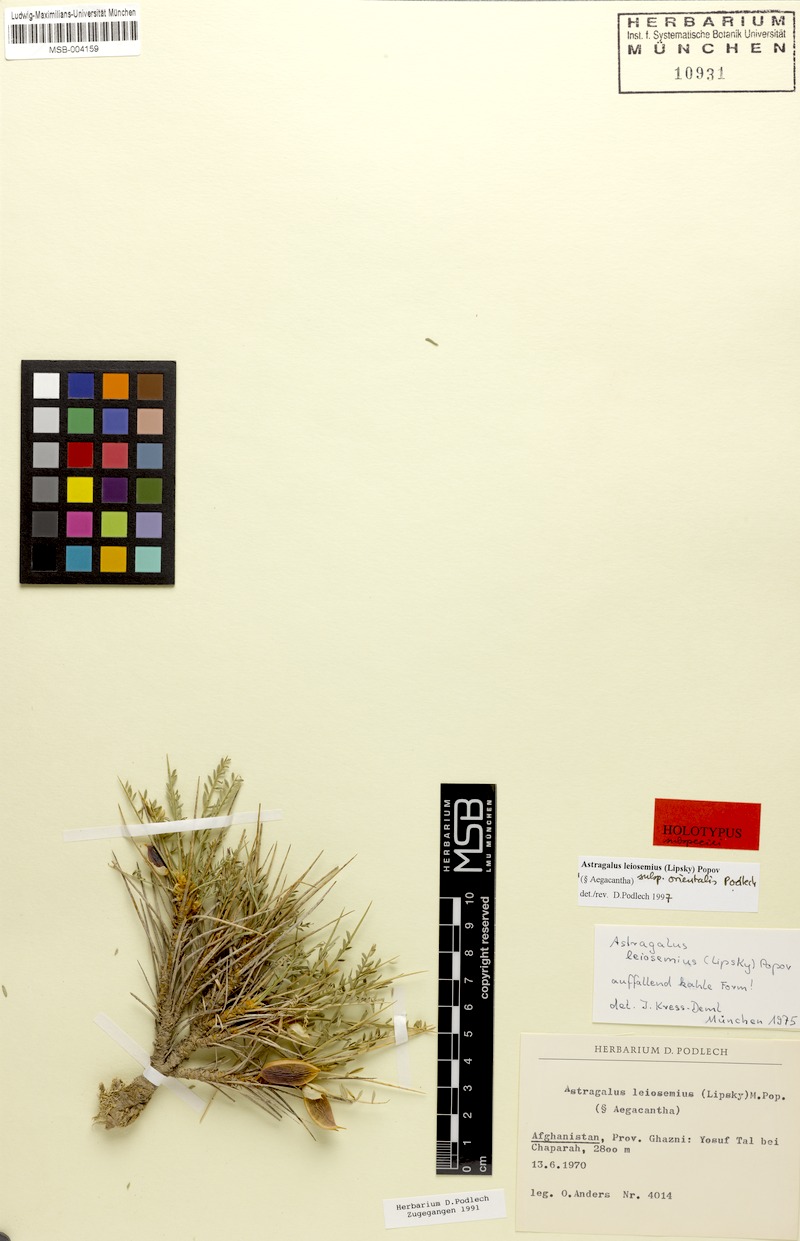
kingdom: Plantae
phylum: Tracheophyta
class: Magnoliopsida
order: Fabales
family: Fabaceae
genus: Astragalus
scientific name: Astragalus leiosemius
